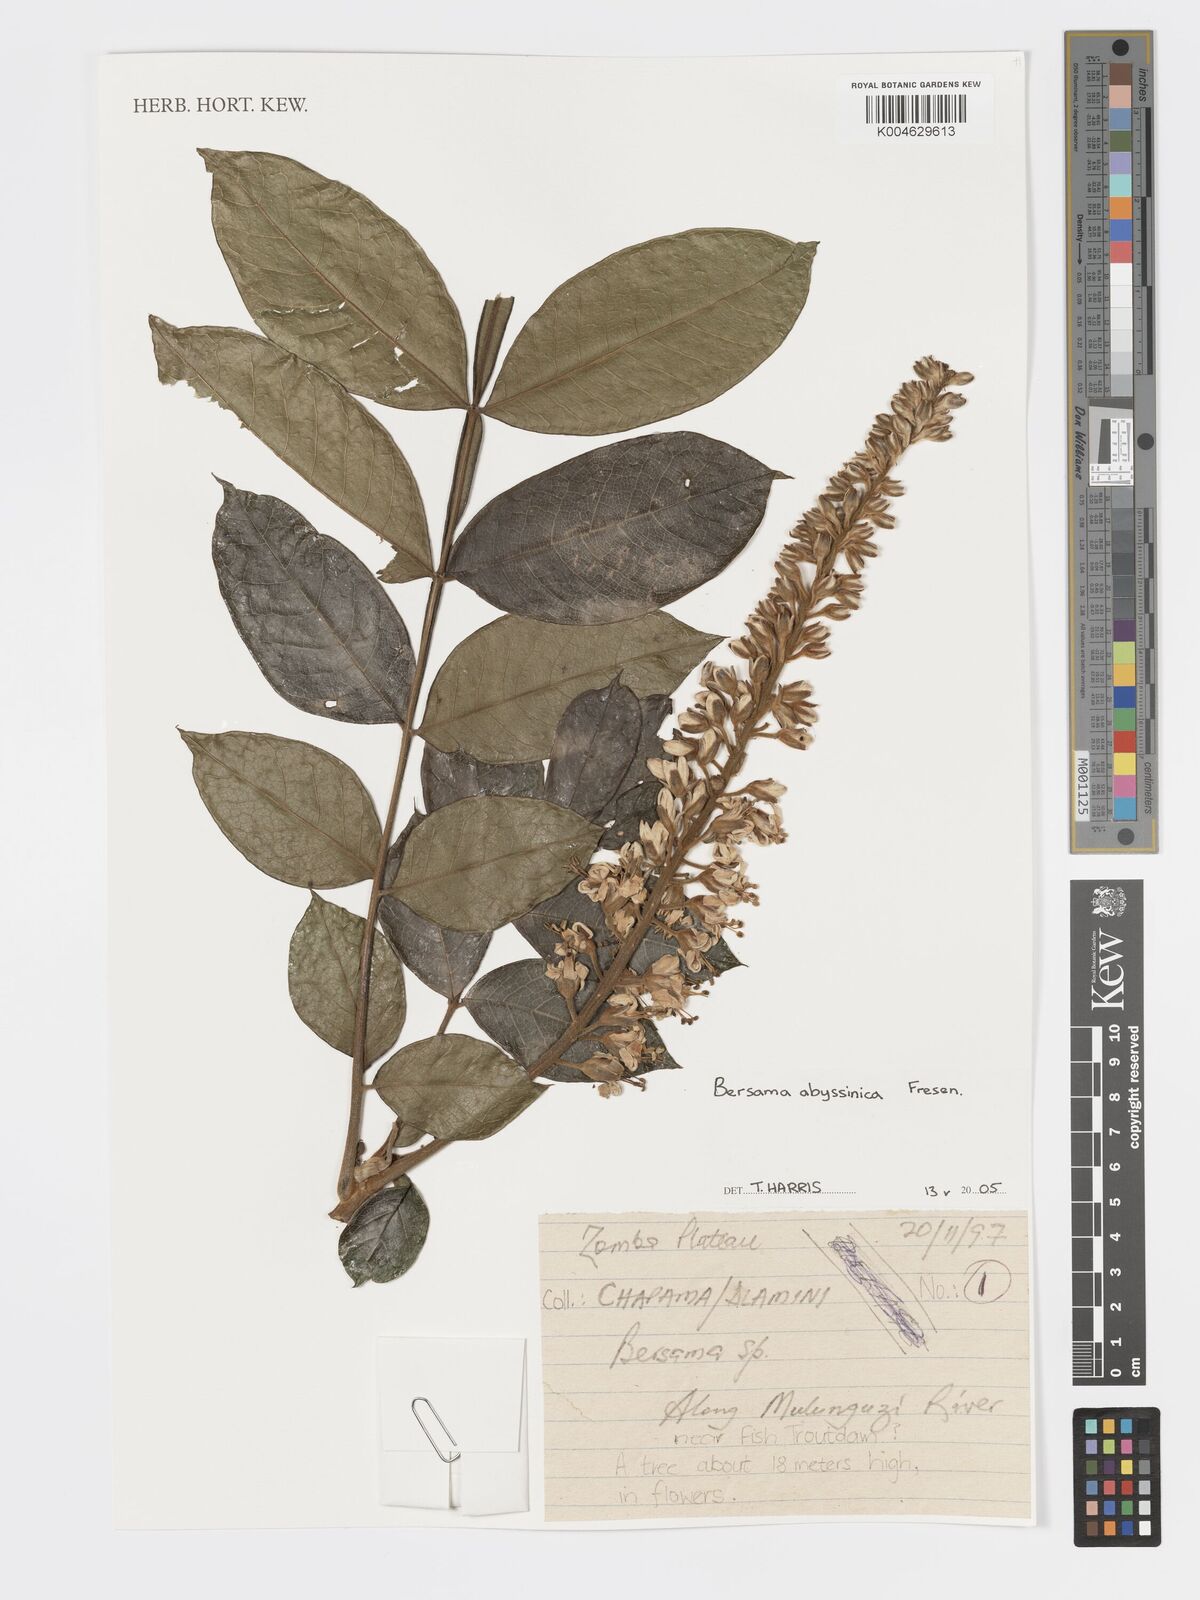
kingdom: Plantae
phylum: Tracheophyta
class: Magnoliopsida
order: Geraniales
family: Melianthaceae
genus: Bersama
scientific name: Bersama abyssinica
